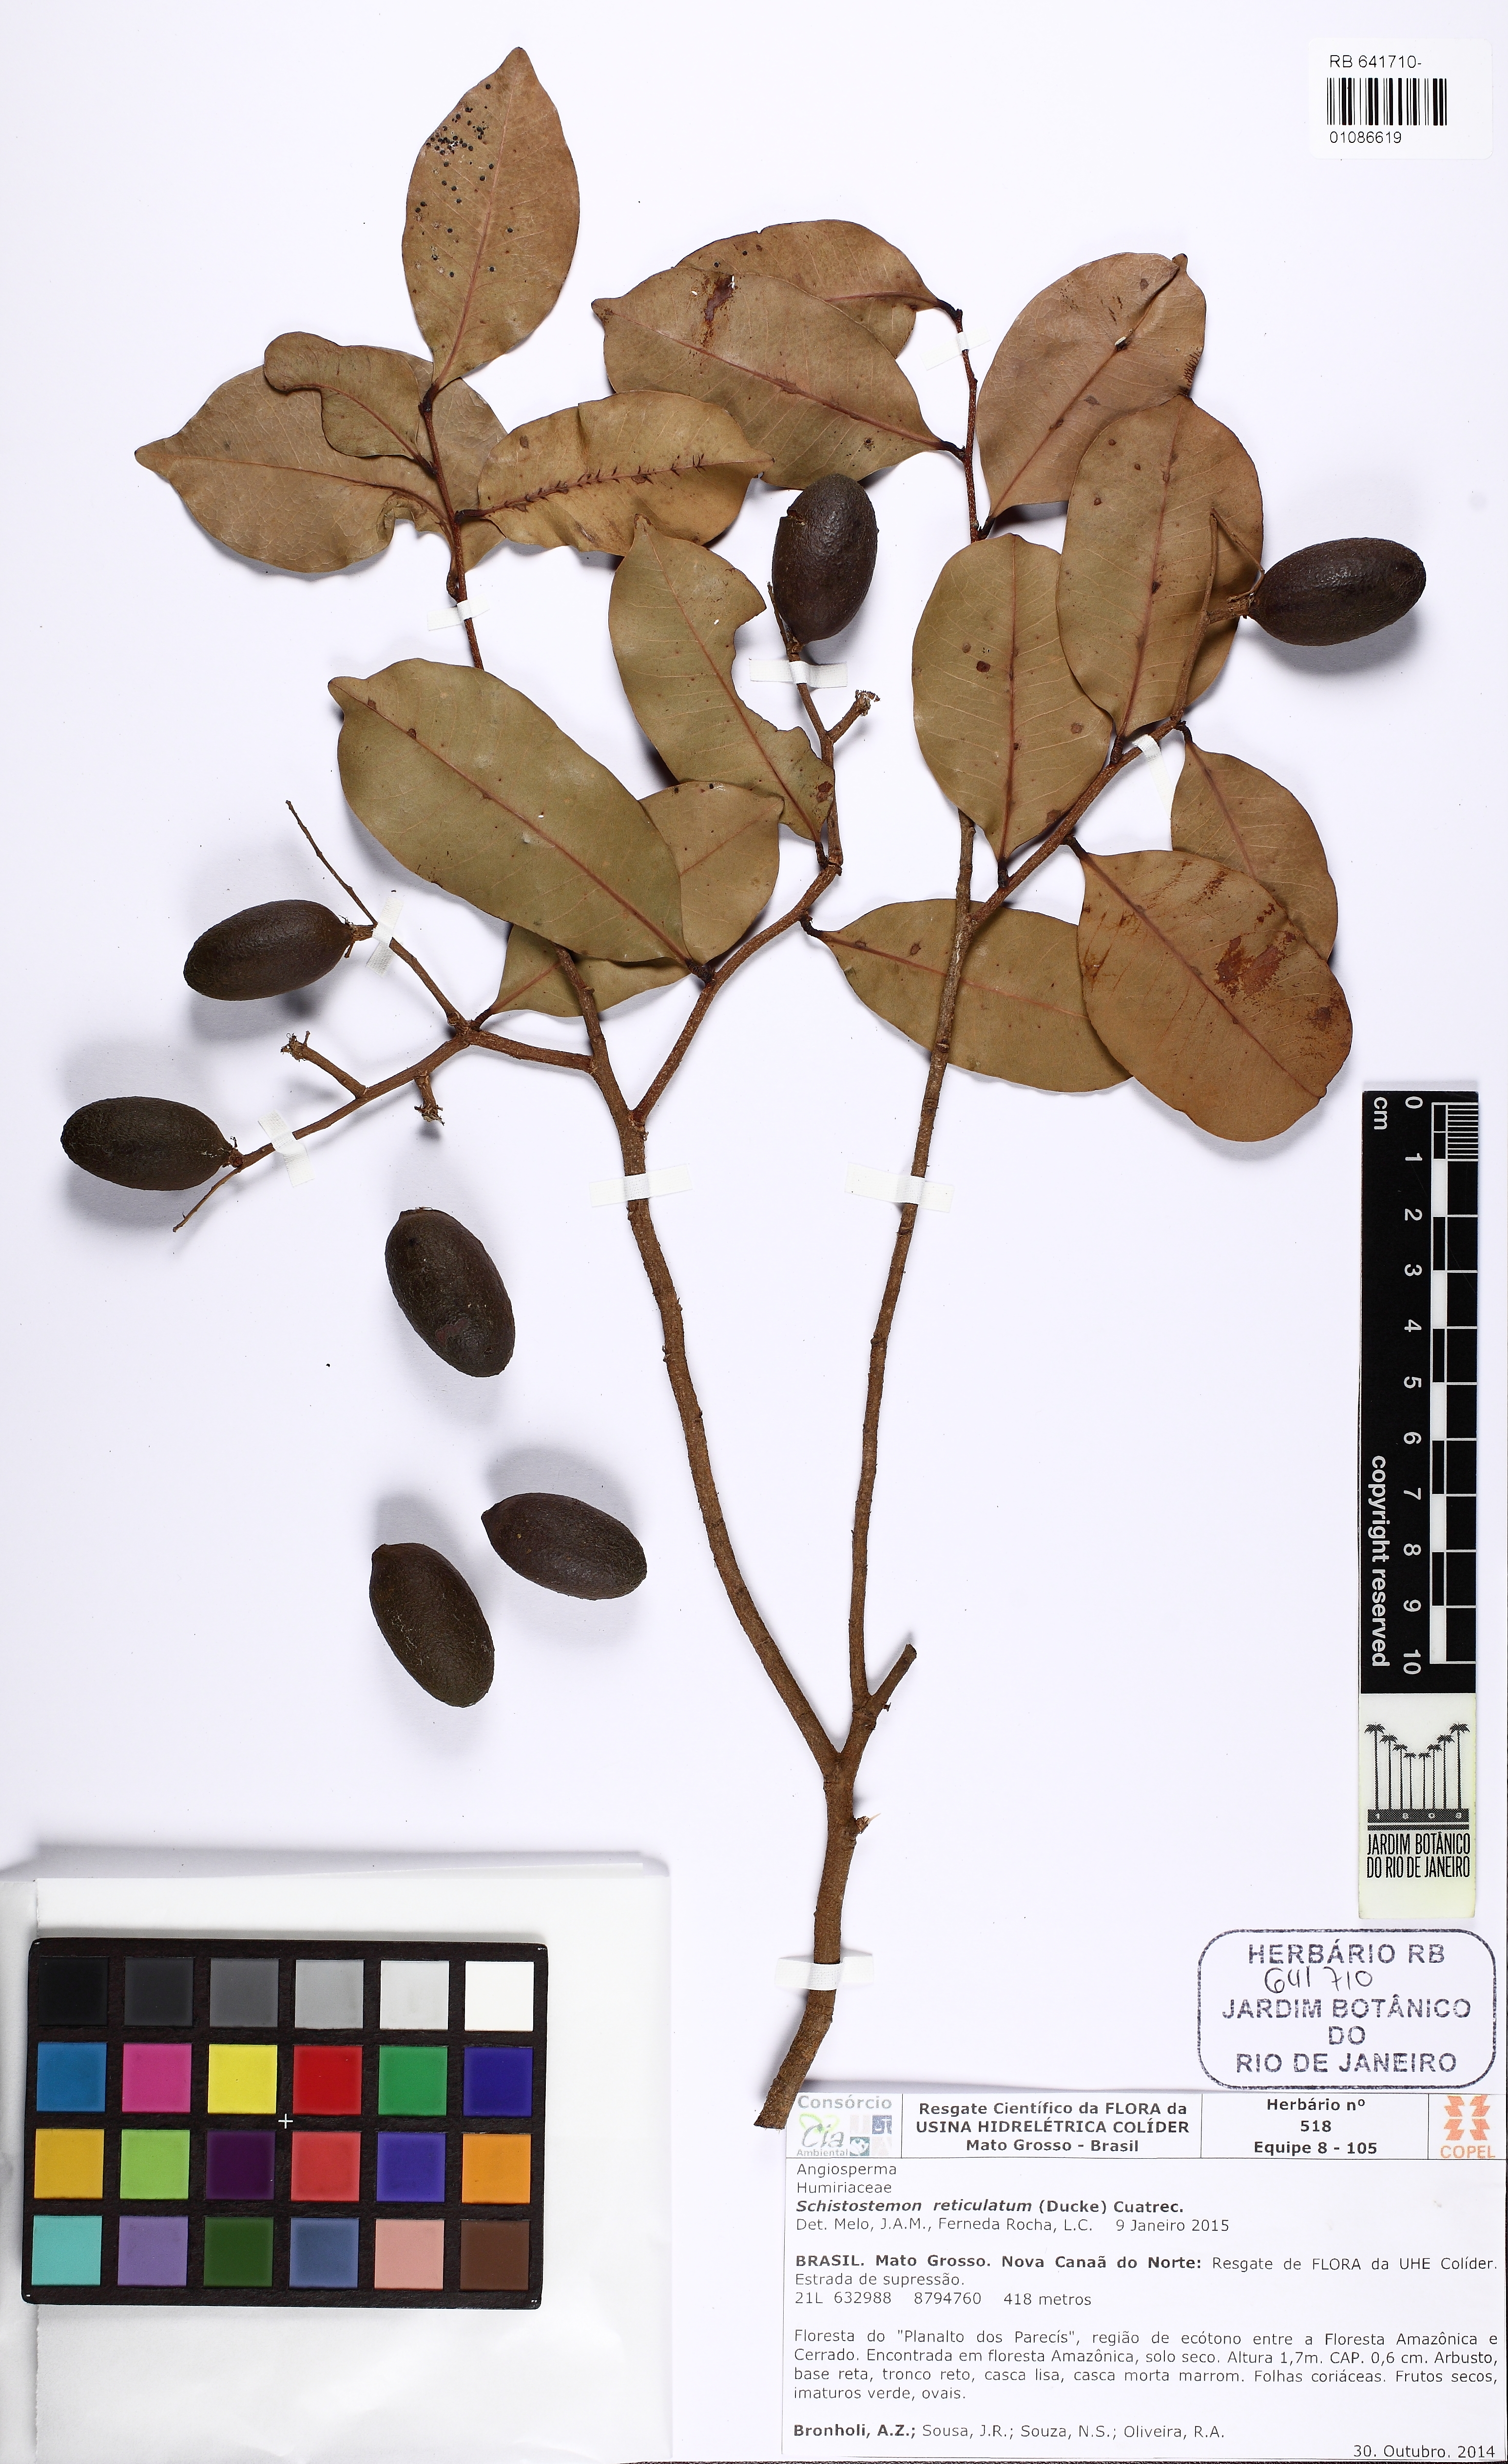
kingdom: Plantae
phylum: Tracheophyta
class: Magnoliopsida
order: Malpighiales
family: Chrysobalanaceae
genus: Moquilea
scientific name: Moquilea egleri
